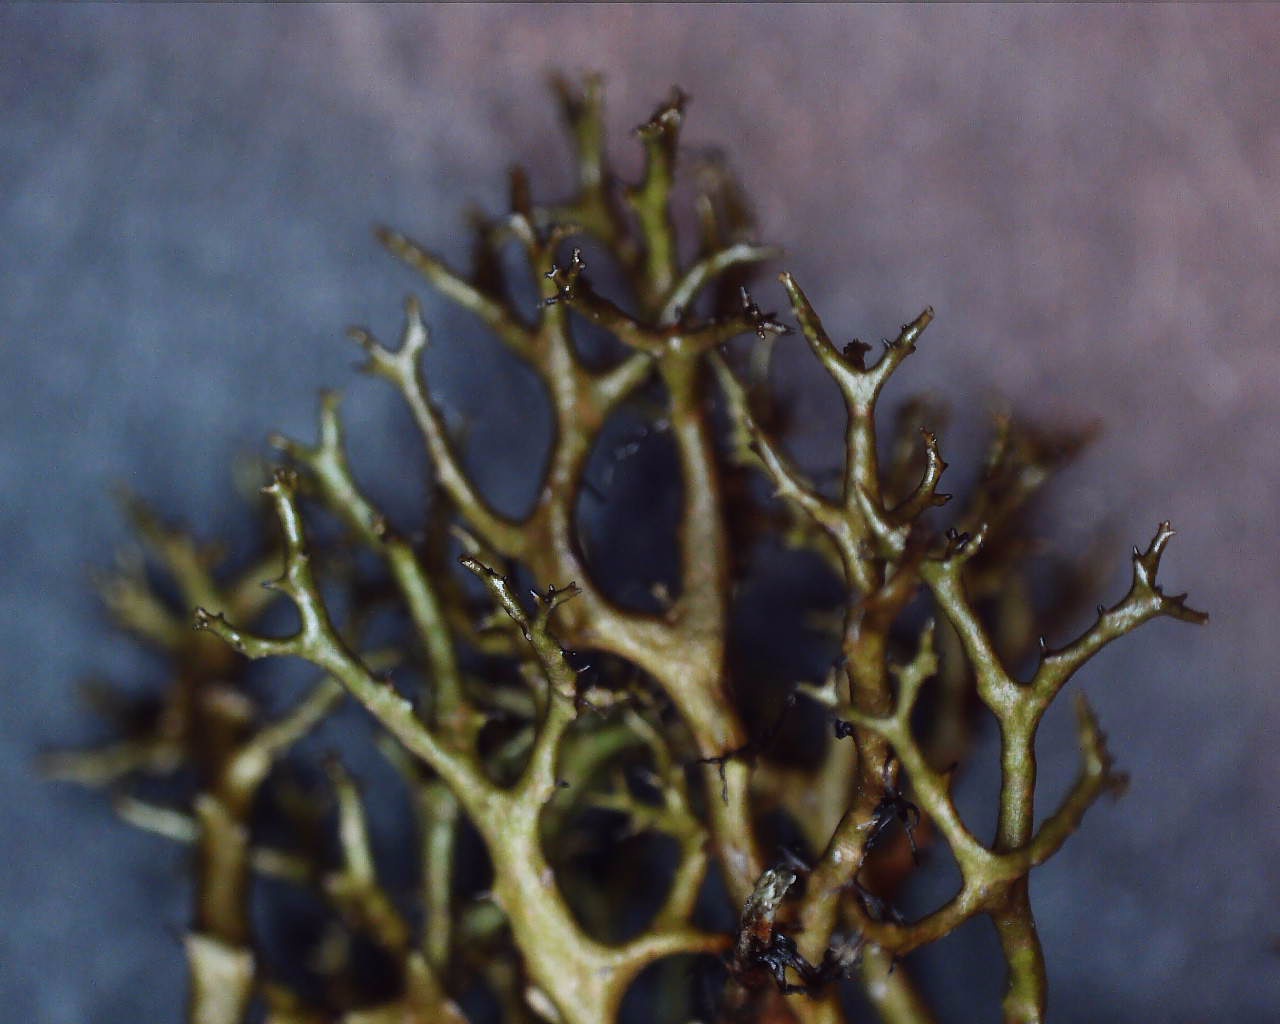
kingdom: Fungi
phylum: Ascomycota
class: Lecanoromycetes
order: Lecanorales
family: Parmeliaceae
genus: Cetraria
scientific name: Cetraria muricata
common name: tue-tjørnelav
